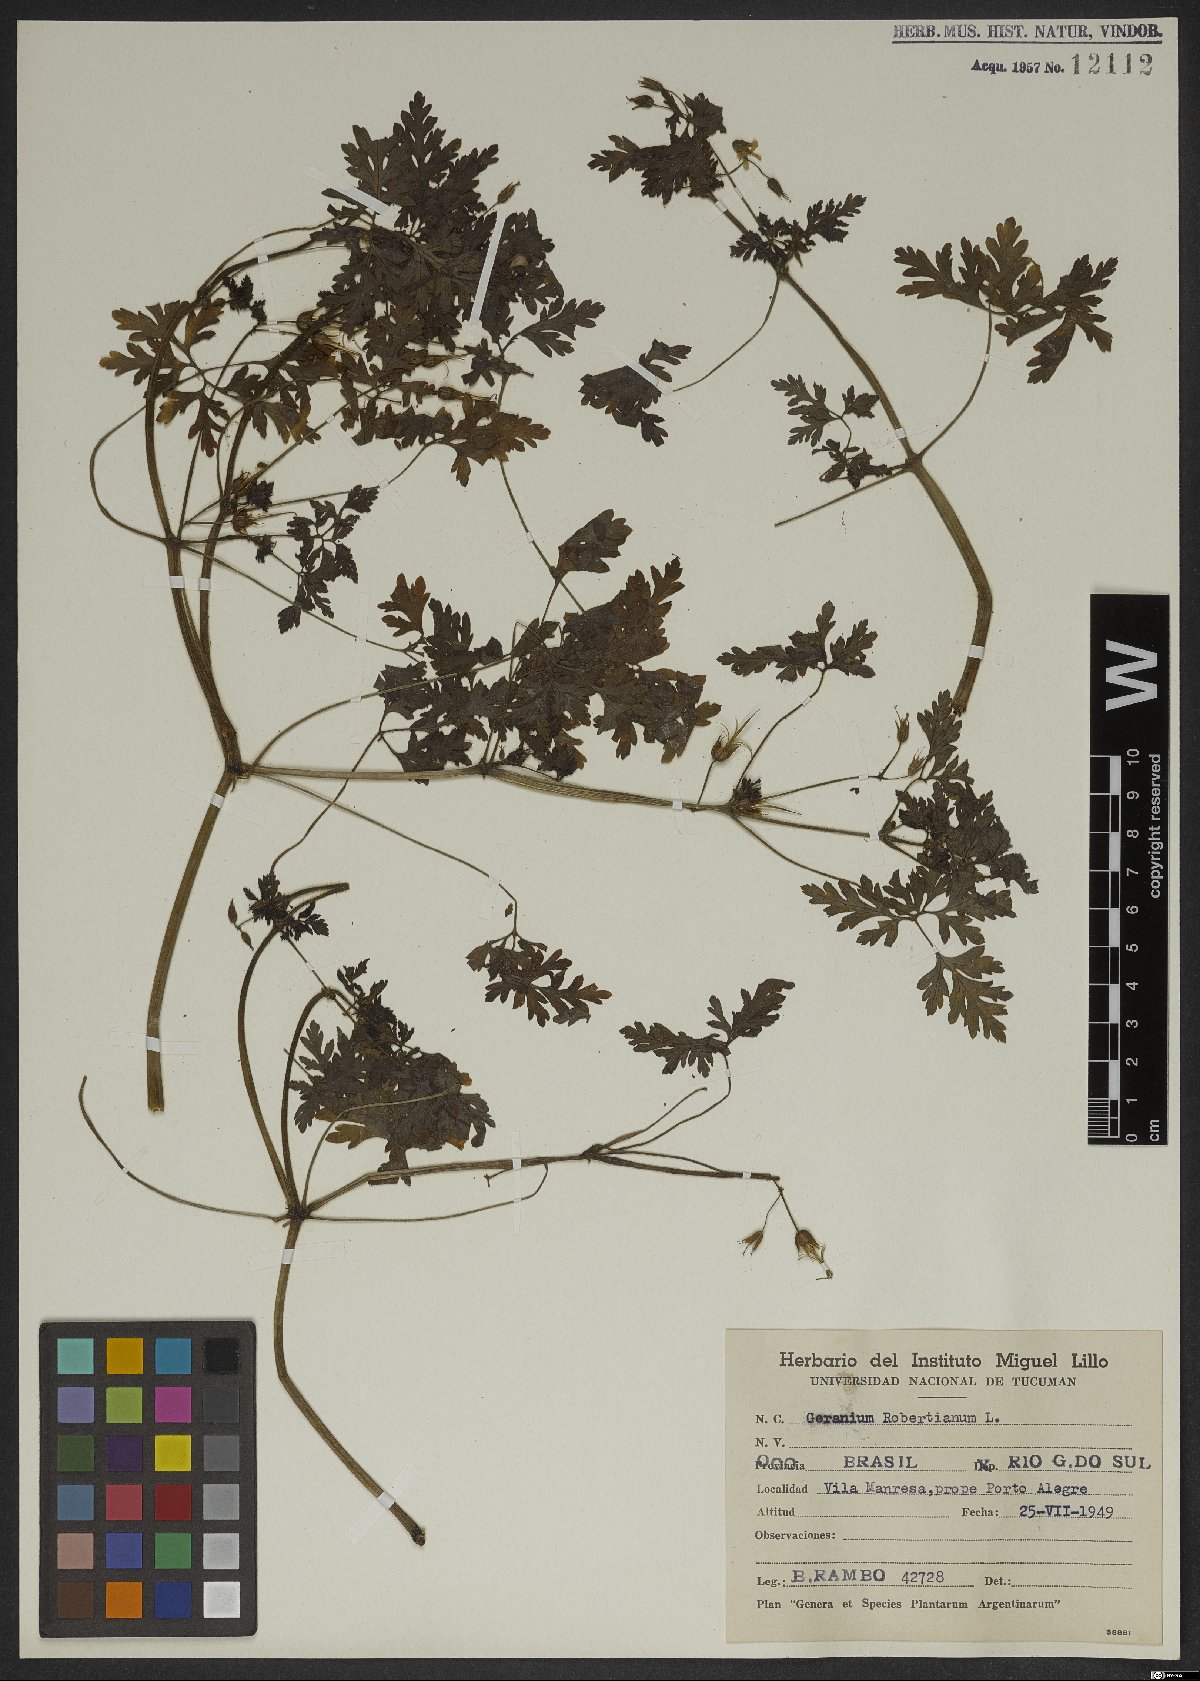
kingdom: Plantae
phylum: Tracheophyta
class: Magnoliopsida
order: Geraniales
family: Geraniaceae
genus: Geranium
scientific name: Geranium robertianum
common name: Herb-robert
